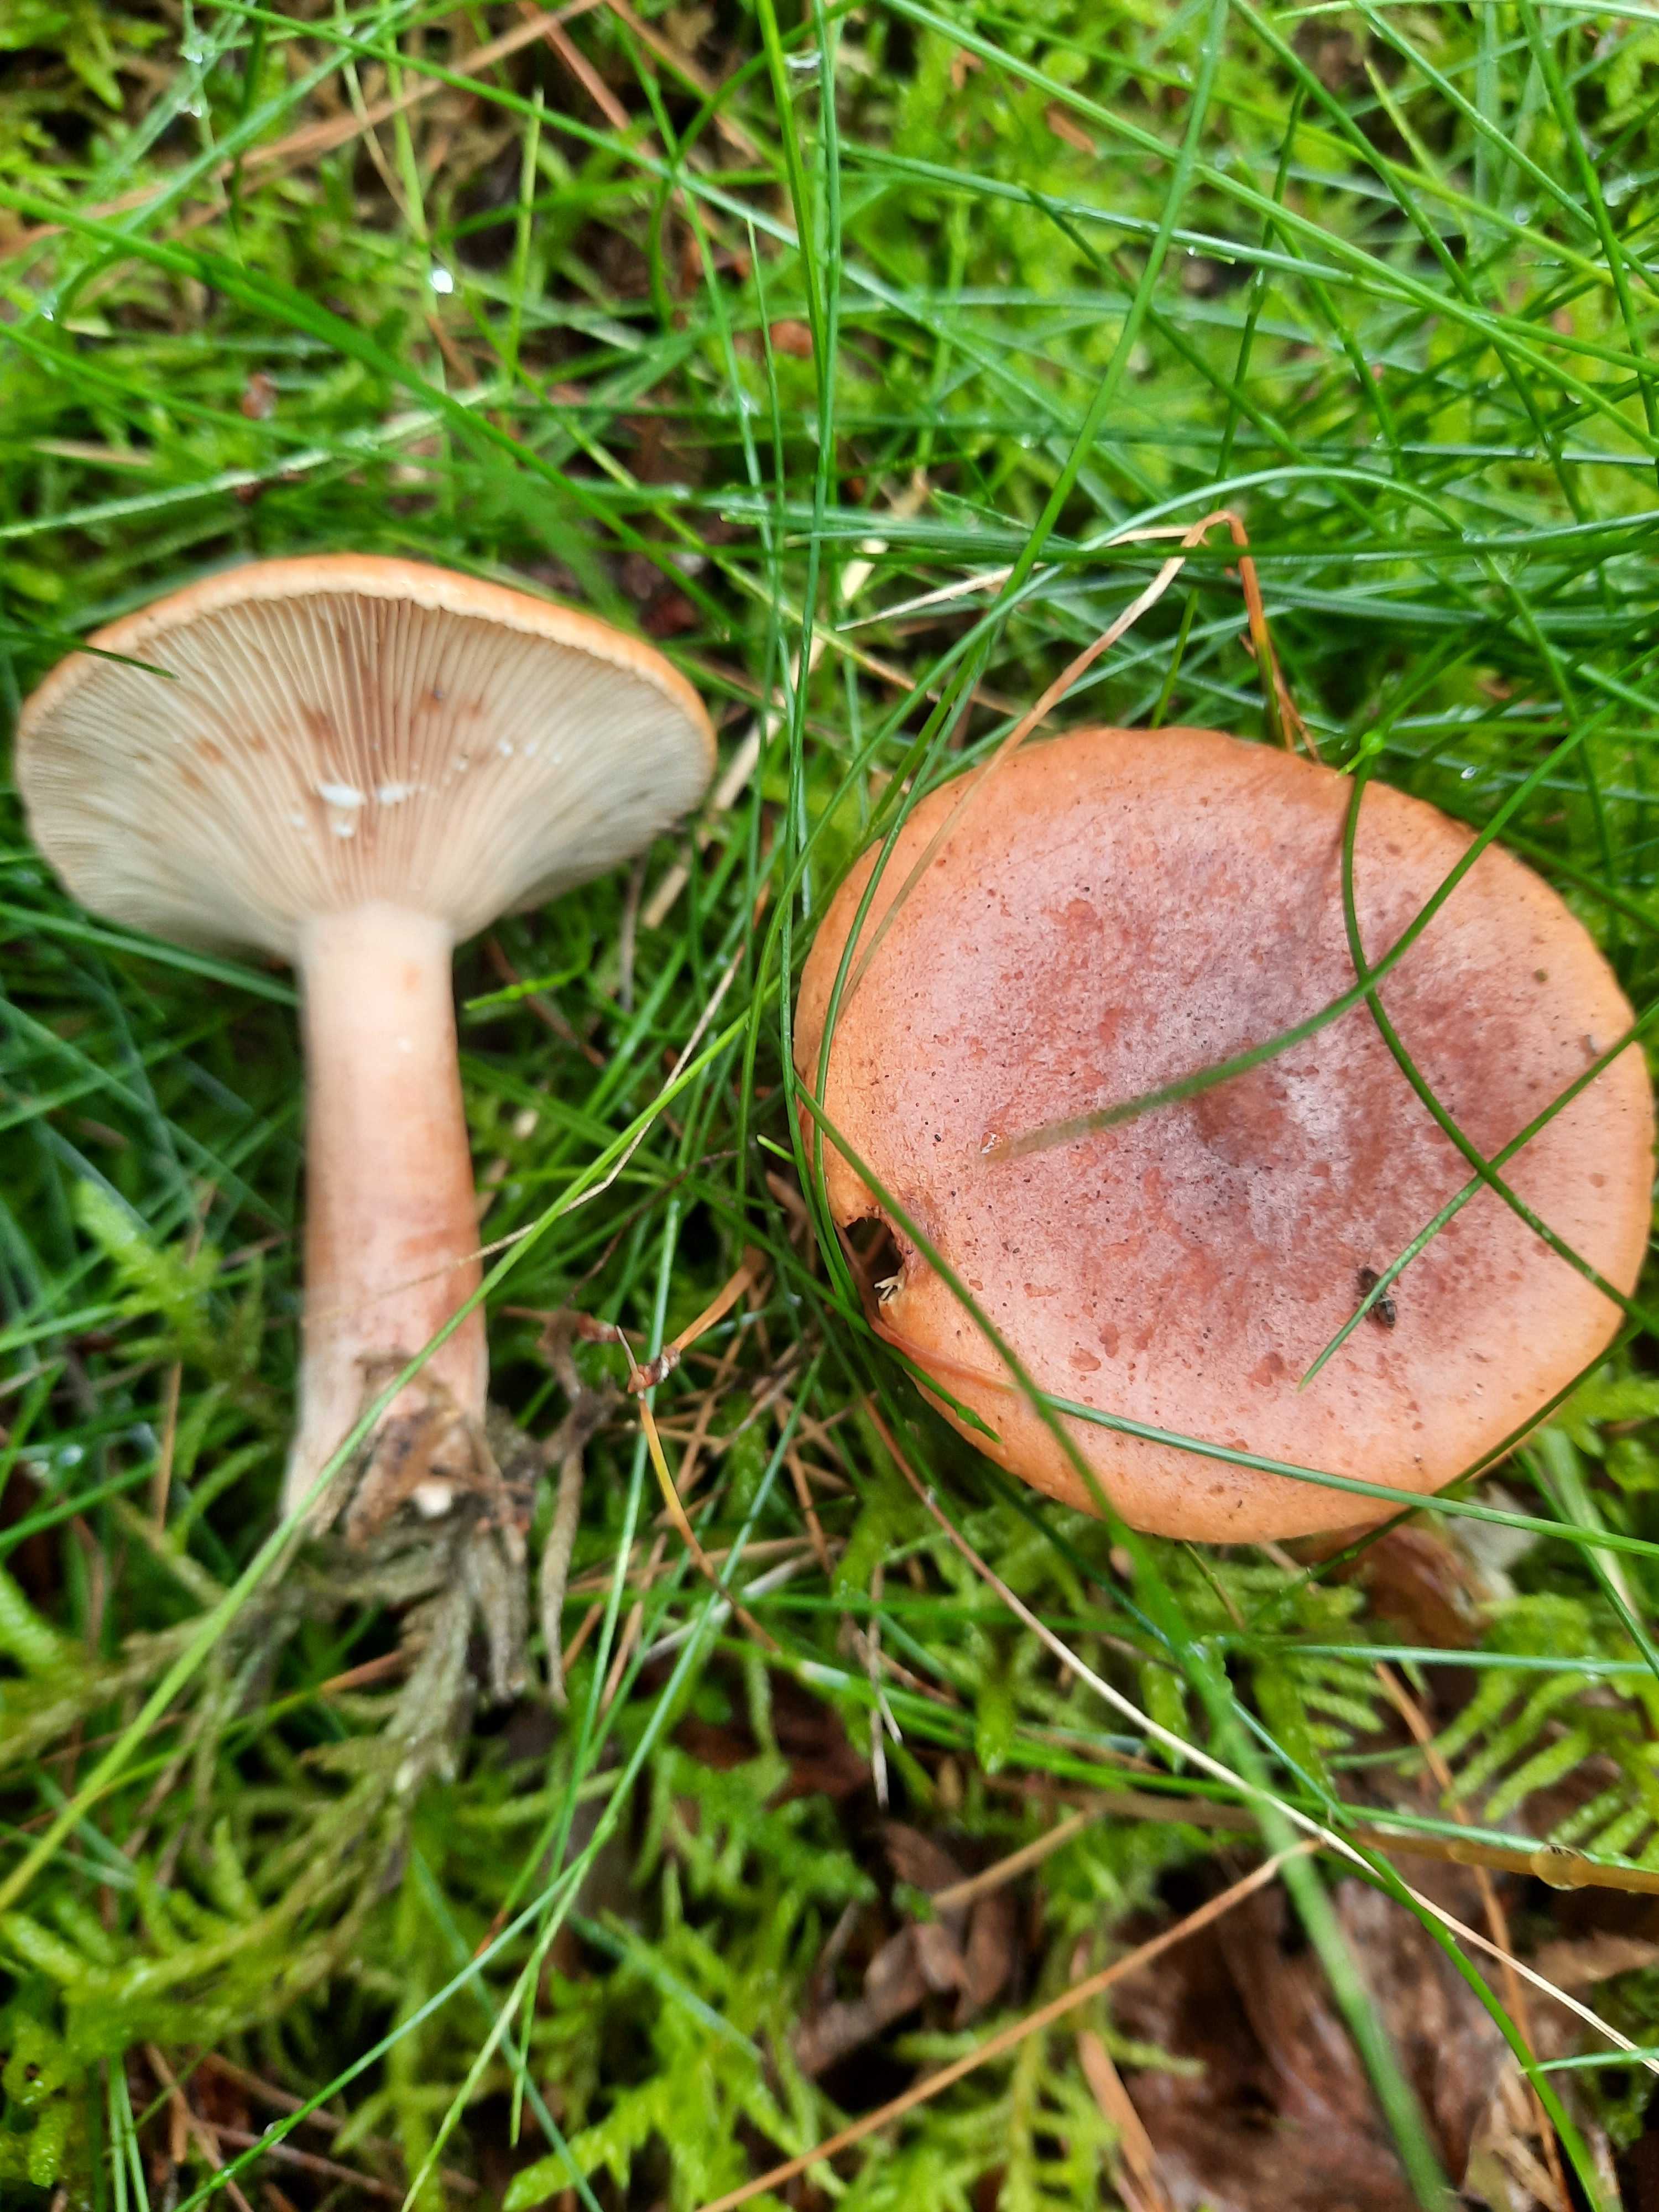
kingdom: Fungi
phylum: Basidiomycota
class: Agaricomycetes
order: Russulales
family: Russulaceae
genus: Lactarius
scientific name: Lactarius
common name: mælkehat
